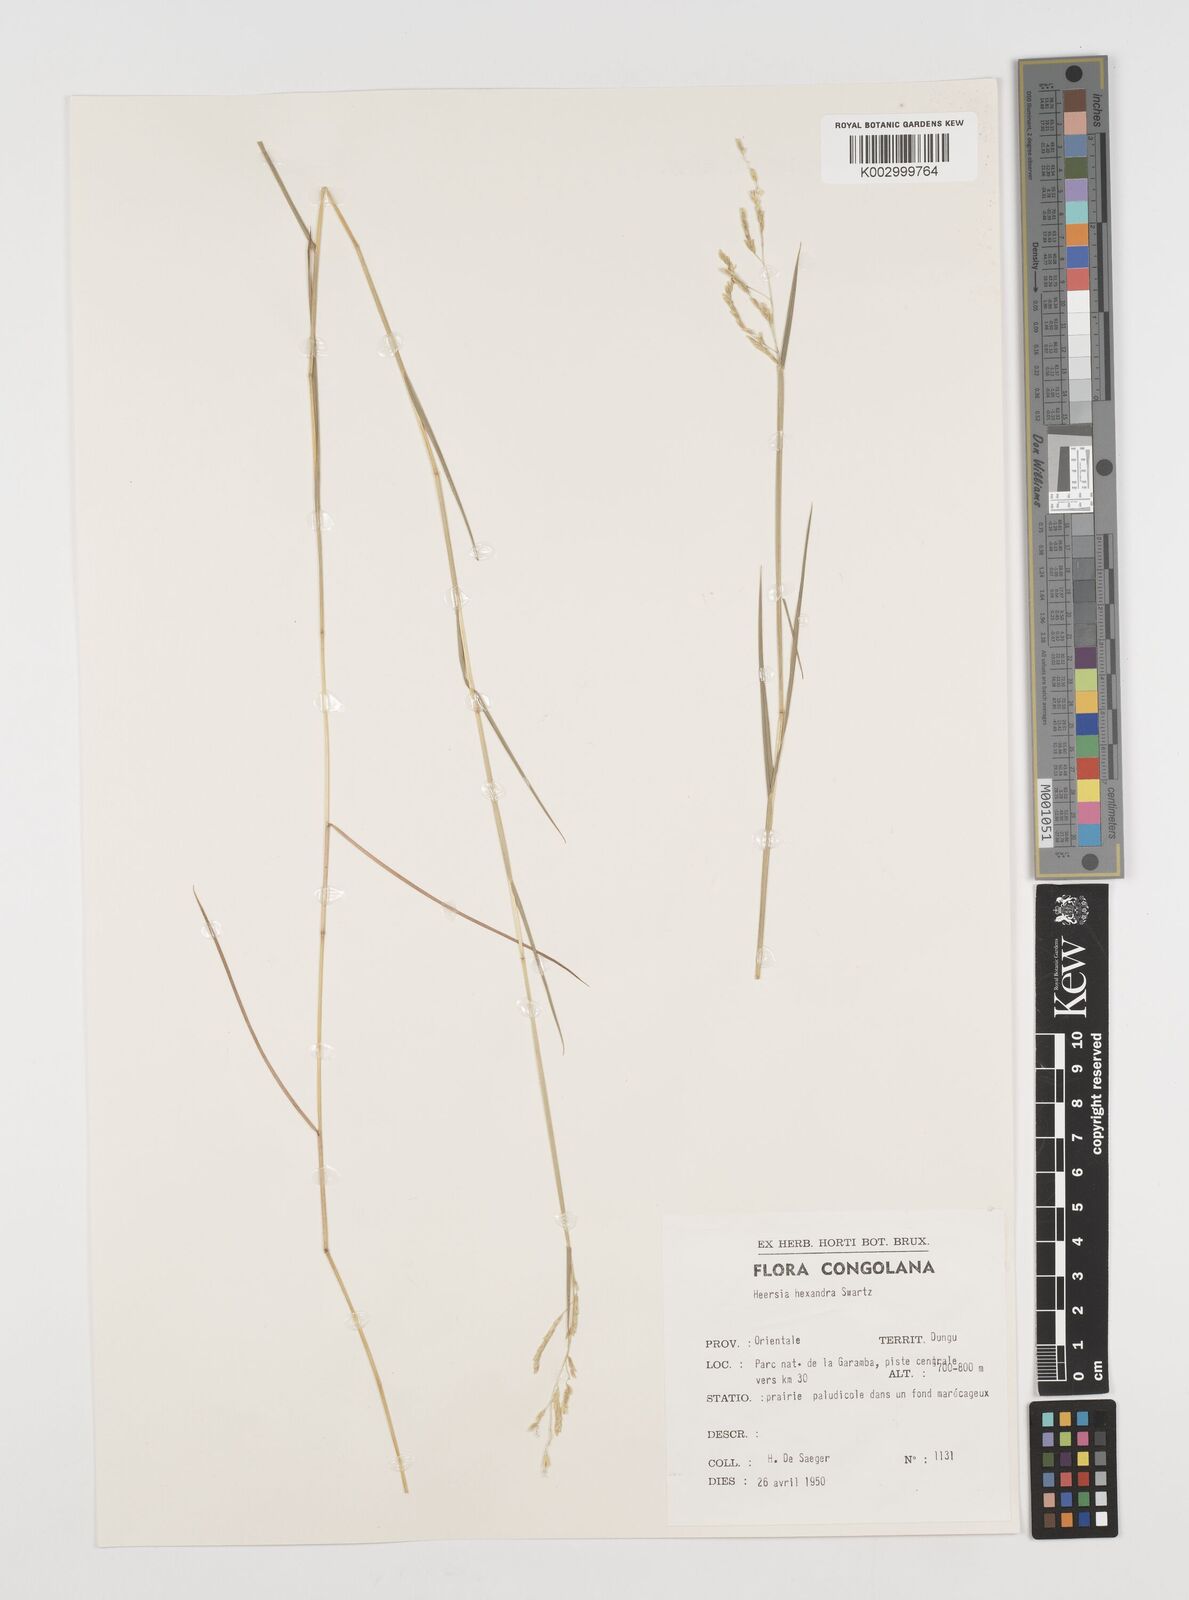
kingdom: Plantae
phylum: Tracheophyta
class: Liliopsida
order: Poales
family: Poaceae
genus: Leersia
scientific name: Leersia hexandra
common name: Southern cut grass
